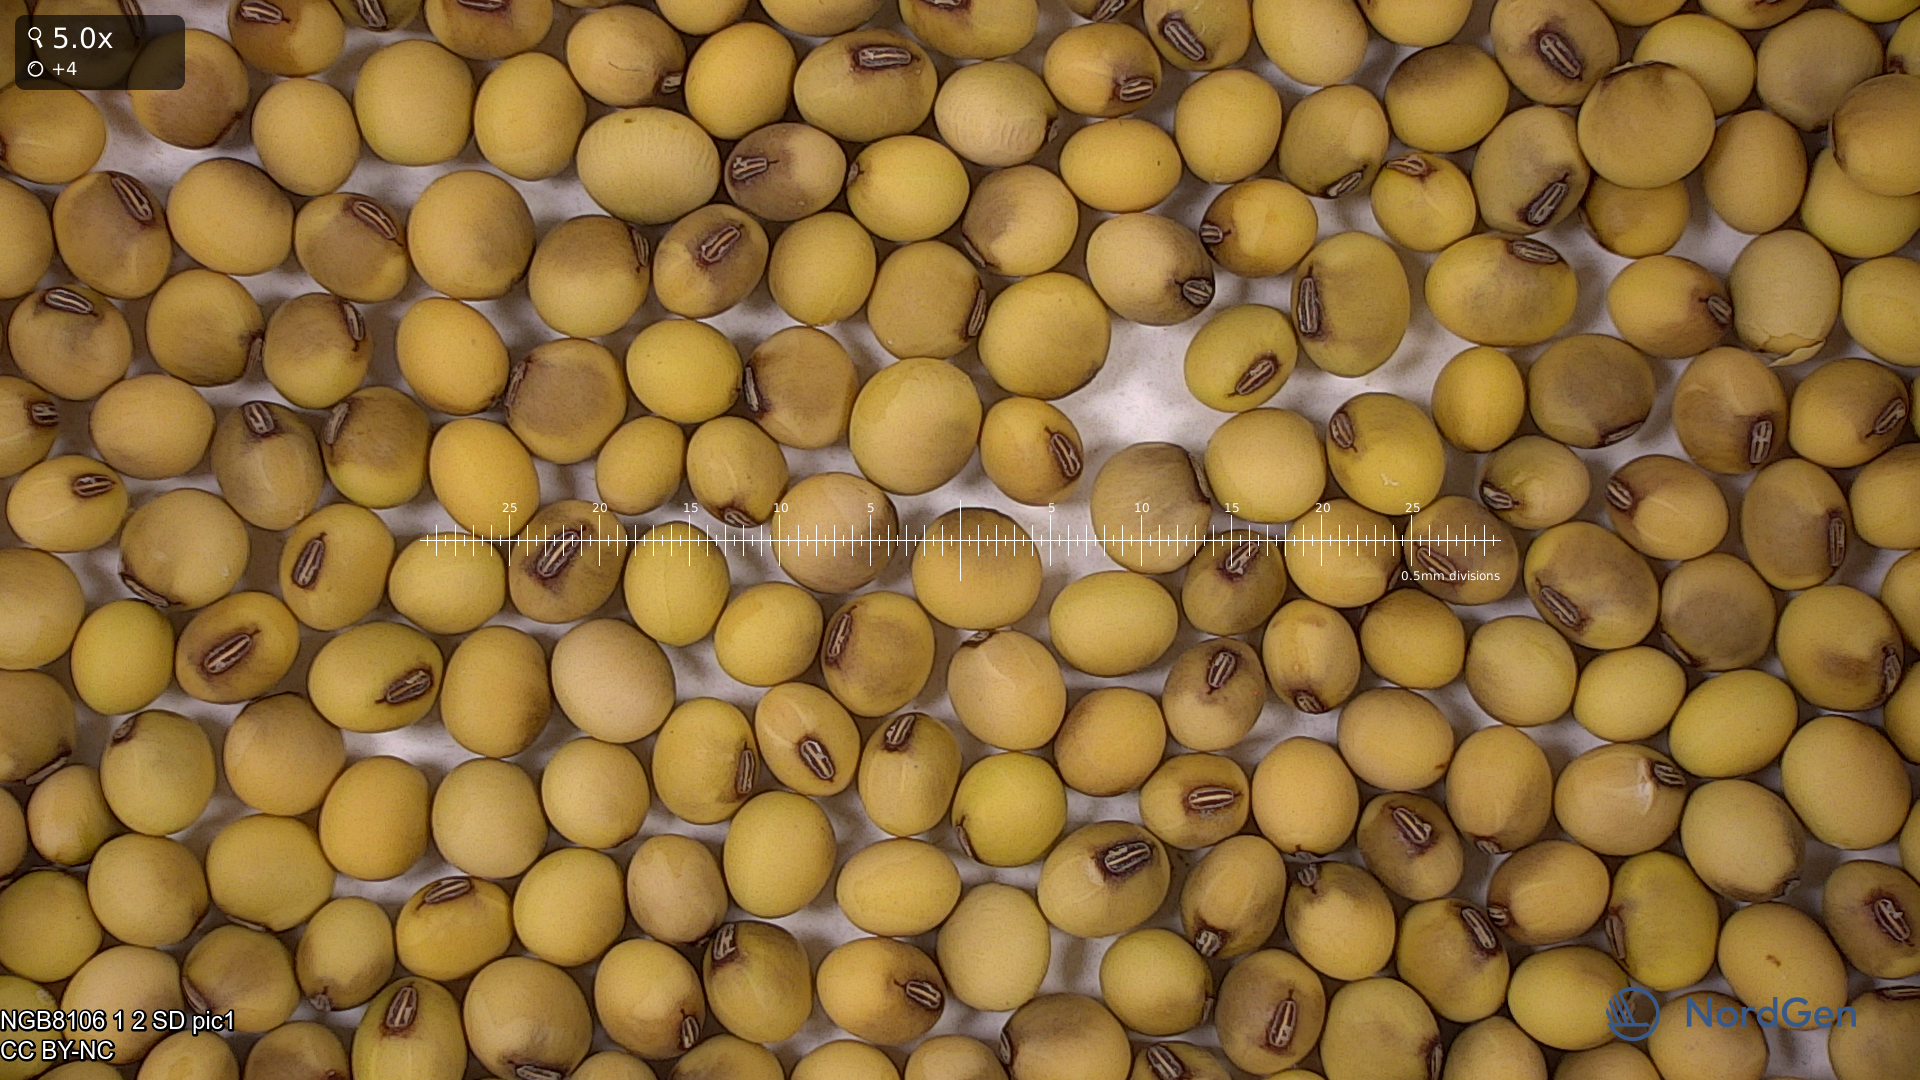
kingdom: Plantae
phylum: Tracheophyta
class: Magnoliopsida
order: Fabales
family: Fabaceae
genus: Glycine
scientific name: Glycine max
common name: Soya-bean
